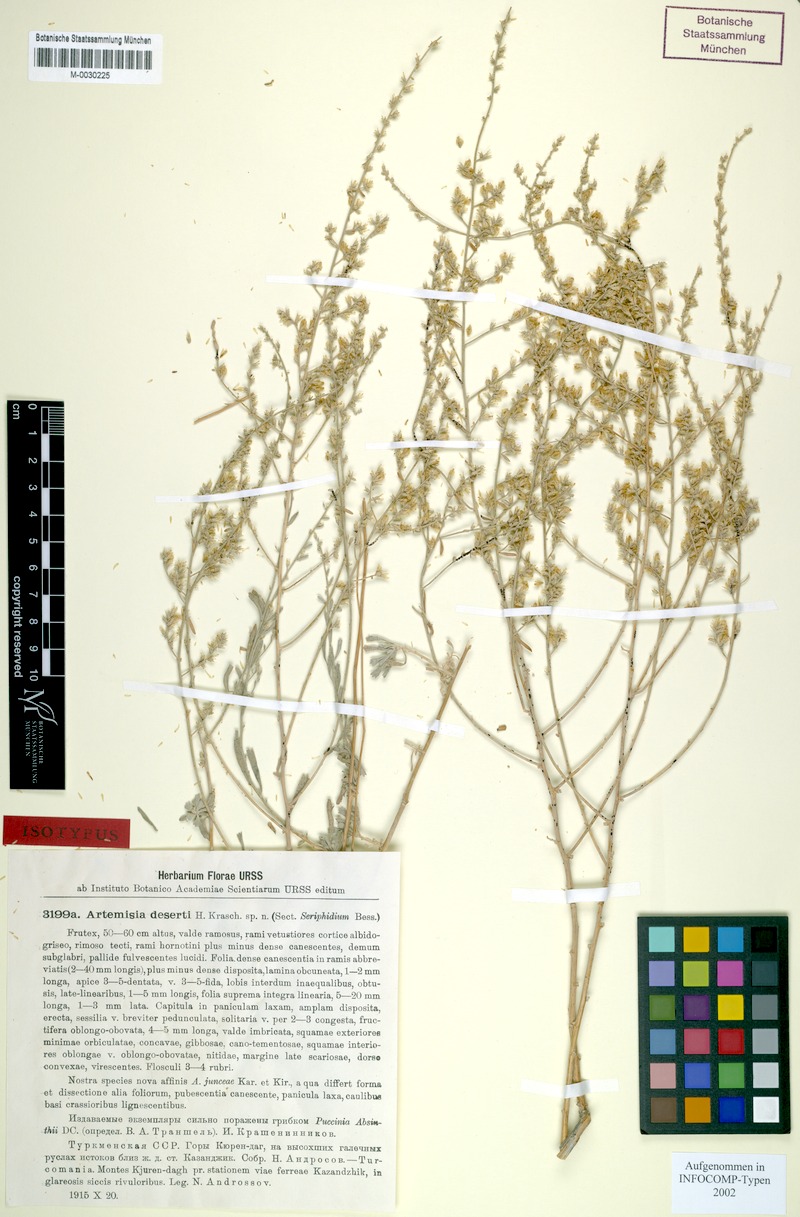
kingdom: Plantae
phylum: Tracheophyta
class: Magnoliopsida
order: Asterales
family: Asteraceae
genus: Artemisia
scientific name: Artemisia deserti
